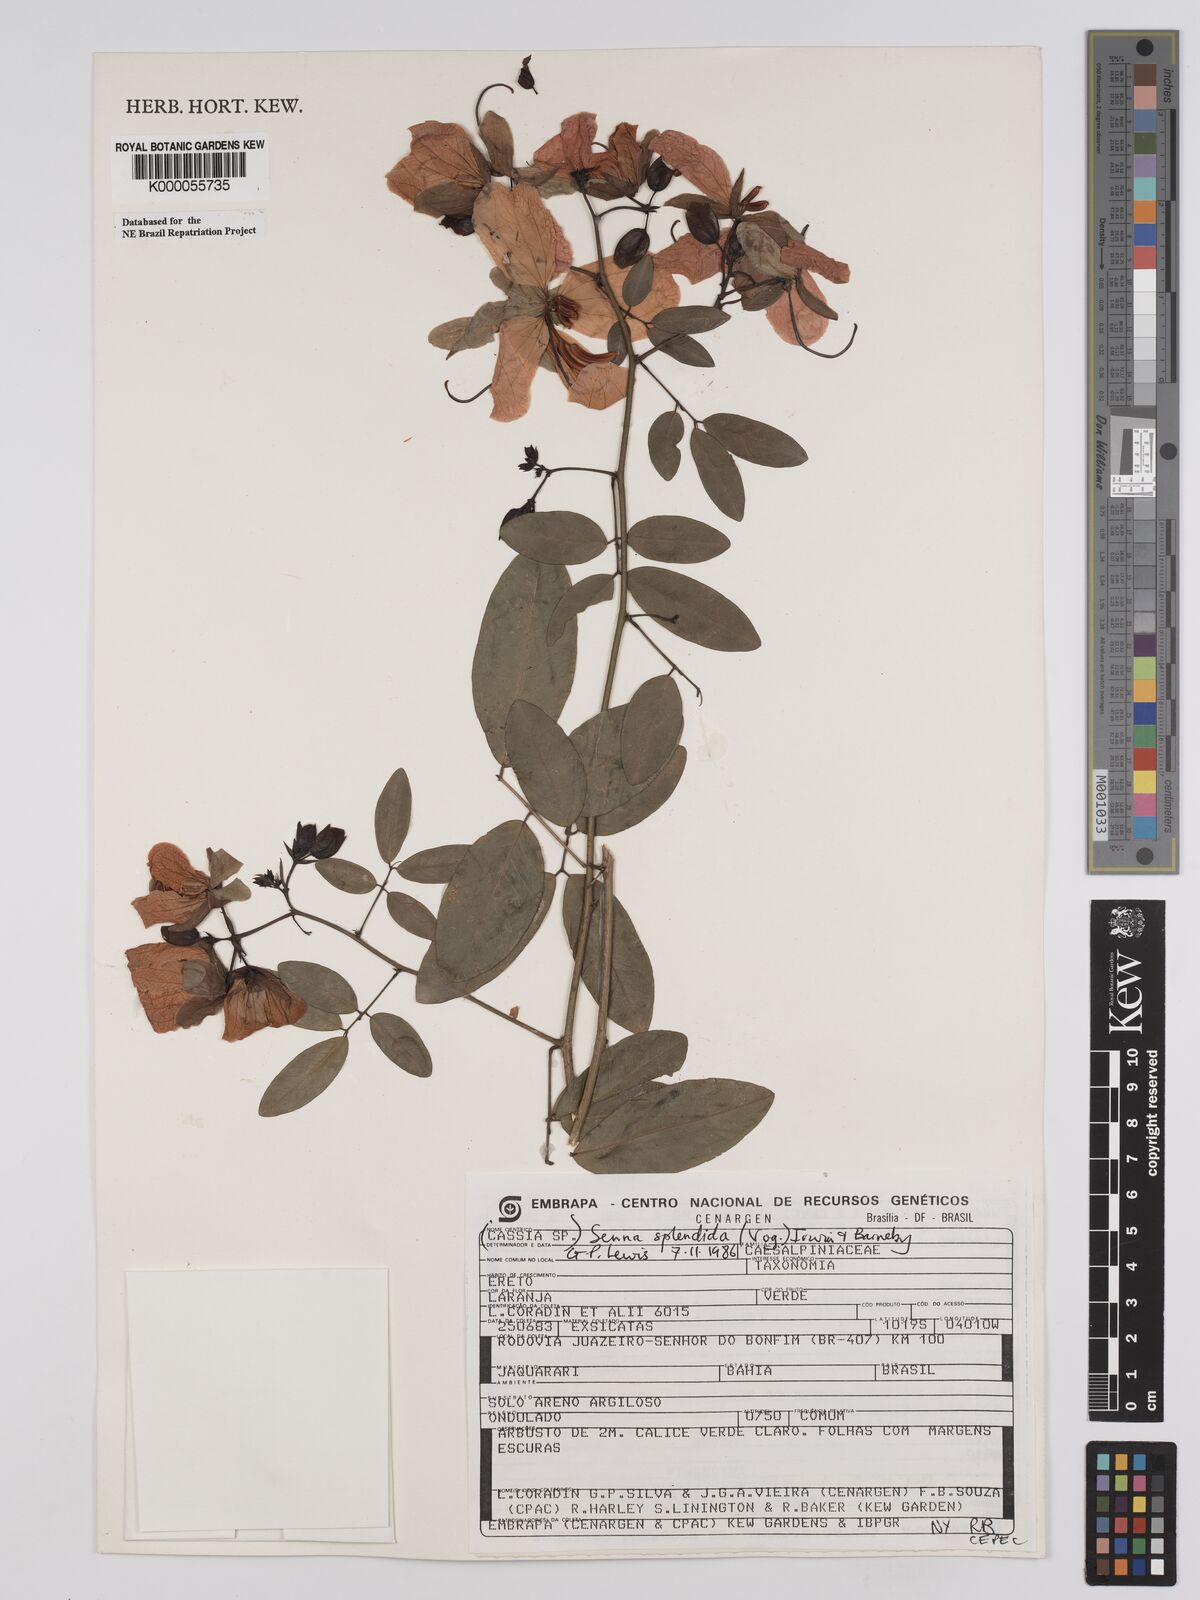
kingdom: Plantae
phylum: Tracheophyta
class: Magnoliopsida
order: Fabales
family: Fabaceae
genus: Senna
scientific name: Senna splendida
